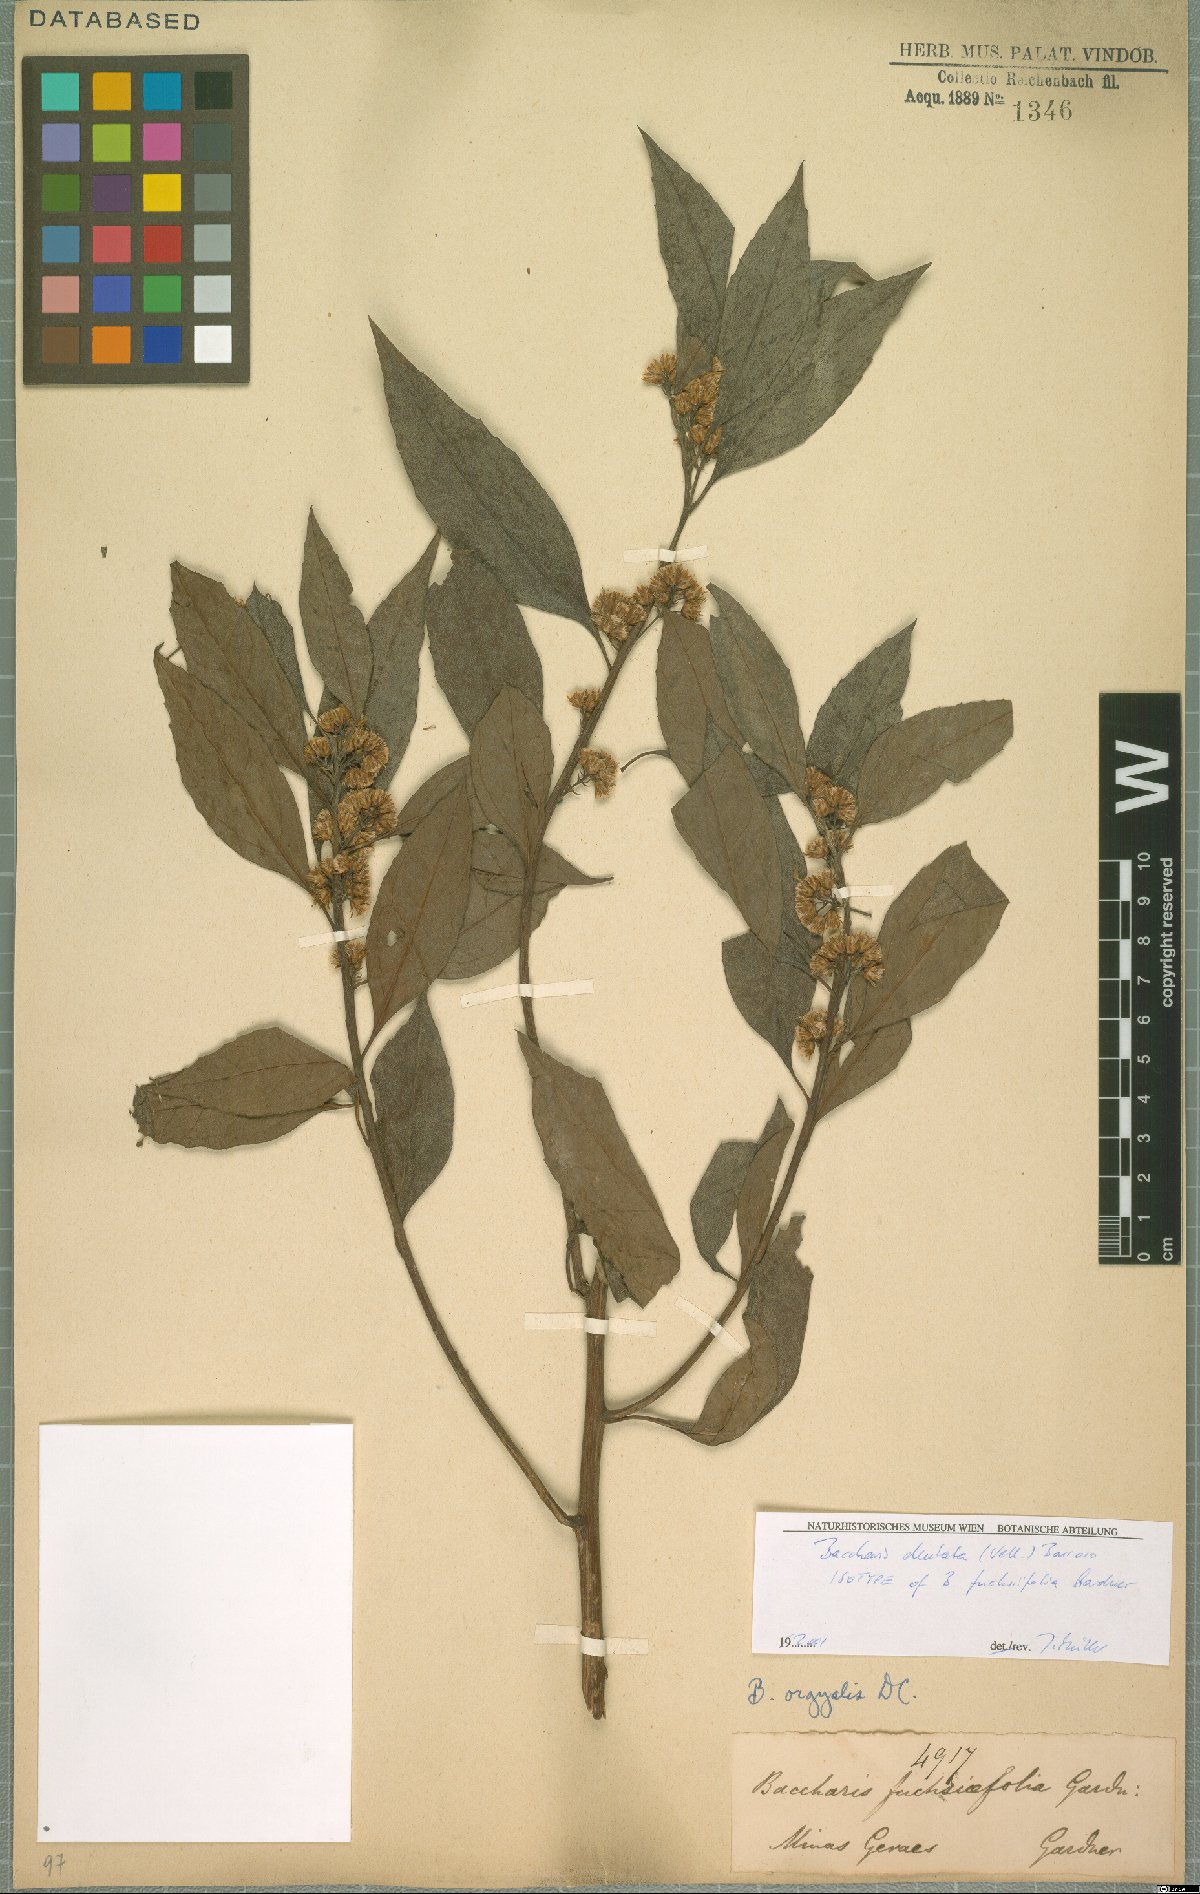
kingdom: Plantae
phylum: Tracheophyta
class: Magnoliopsida
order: Asterales
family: Asteraceae
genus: Baccharis
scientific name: Baccharis dentata
